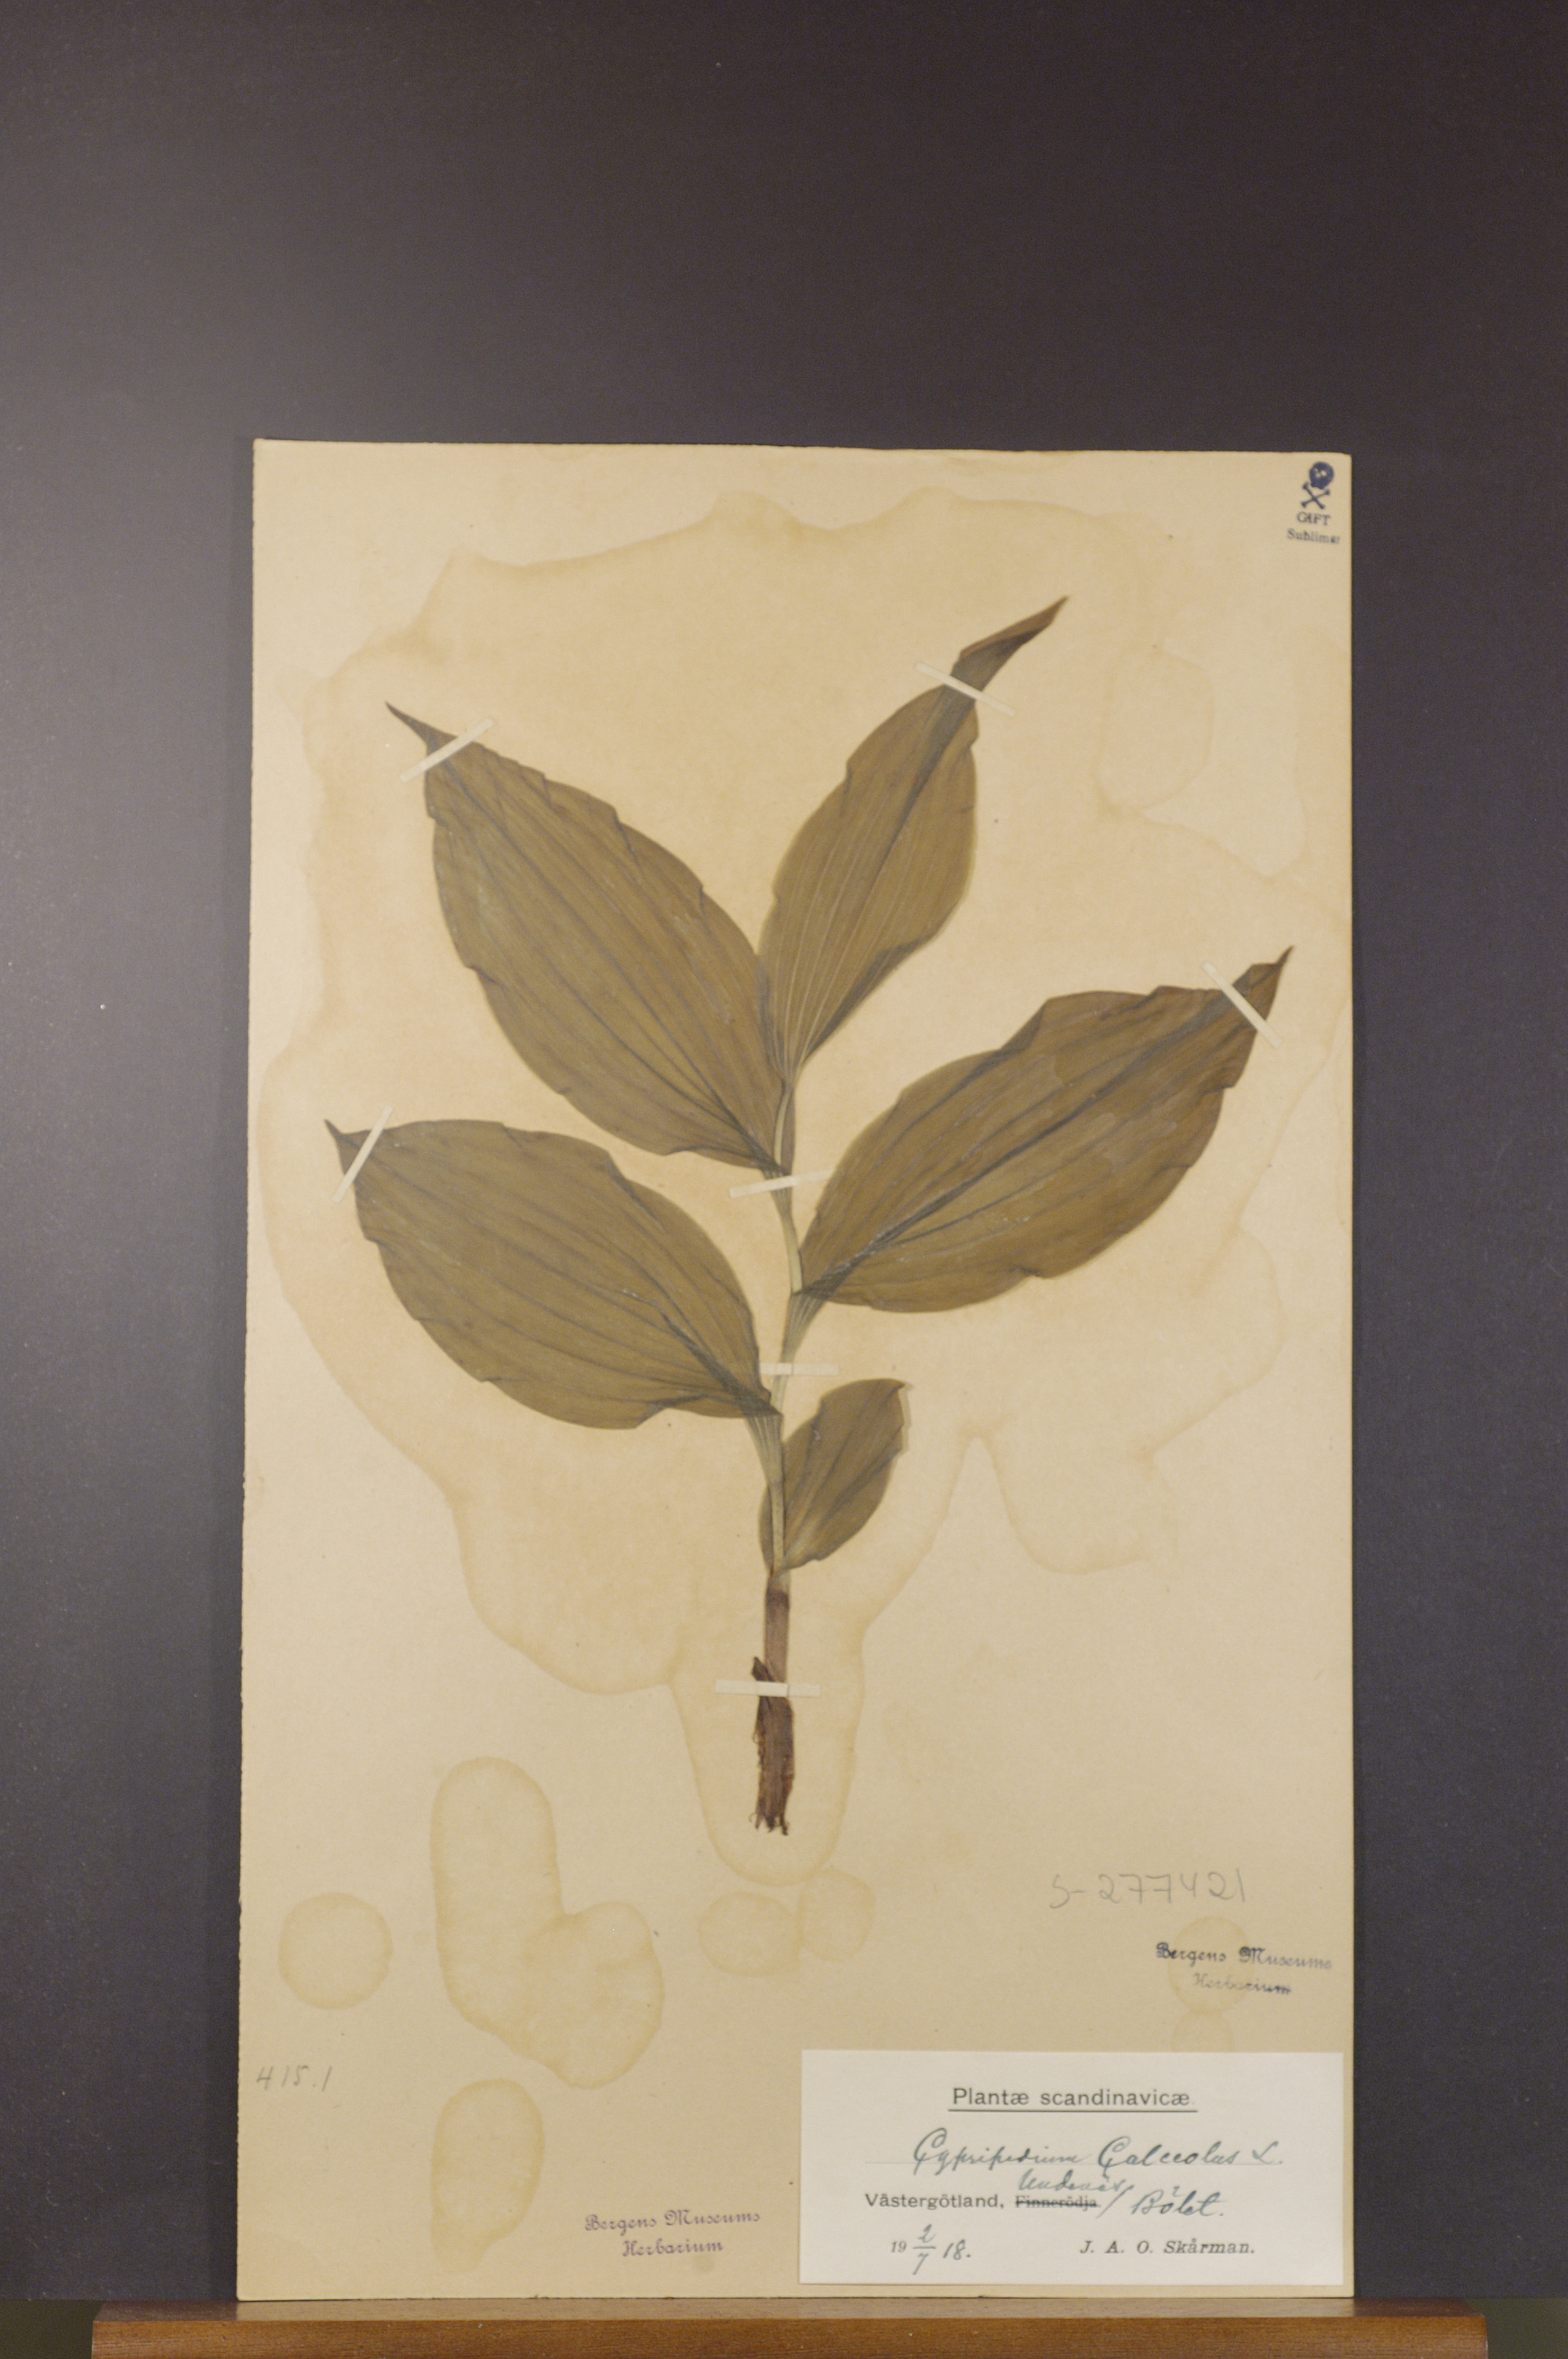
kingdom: Plantae
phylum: Tracheophyta
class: Liliopsida
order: Asparagales
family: Orchidaceae
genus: Cypripedium
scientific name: Cypripedium calceolus
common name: Lady's-slipper
